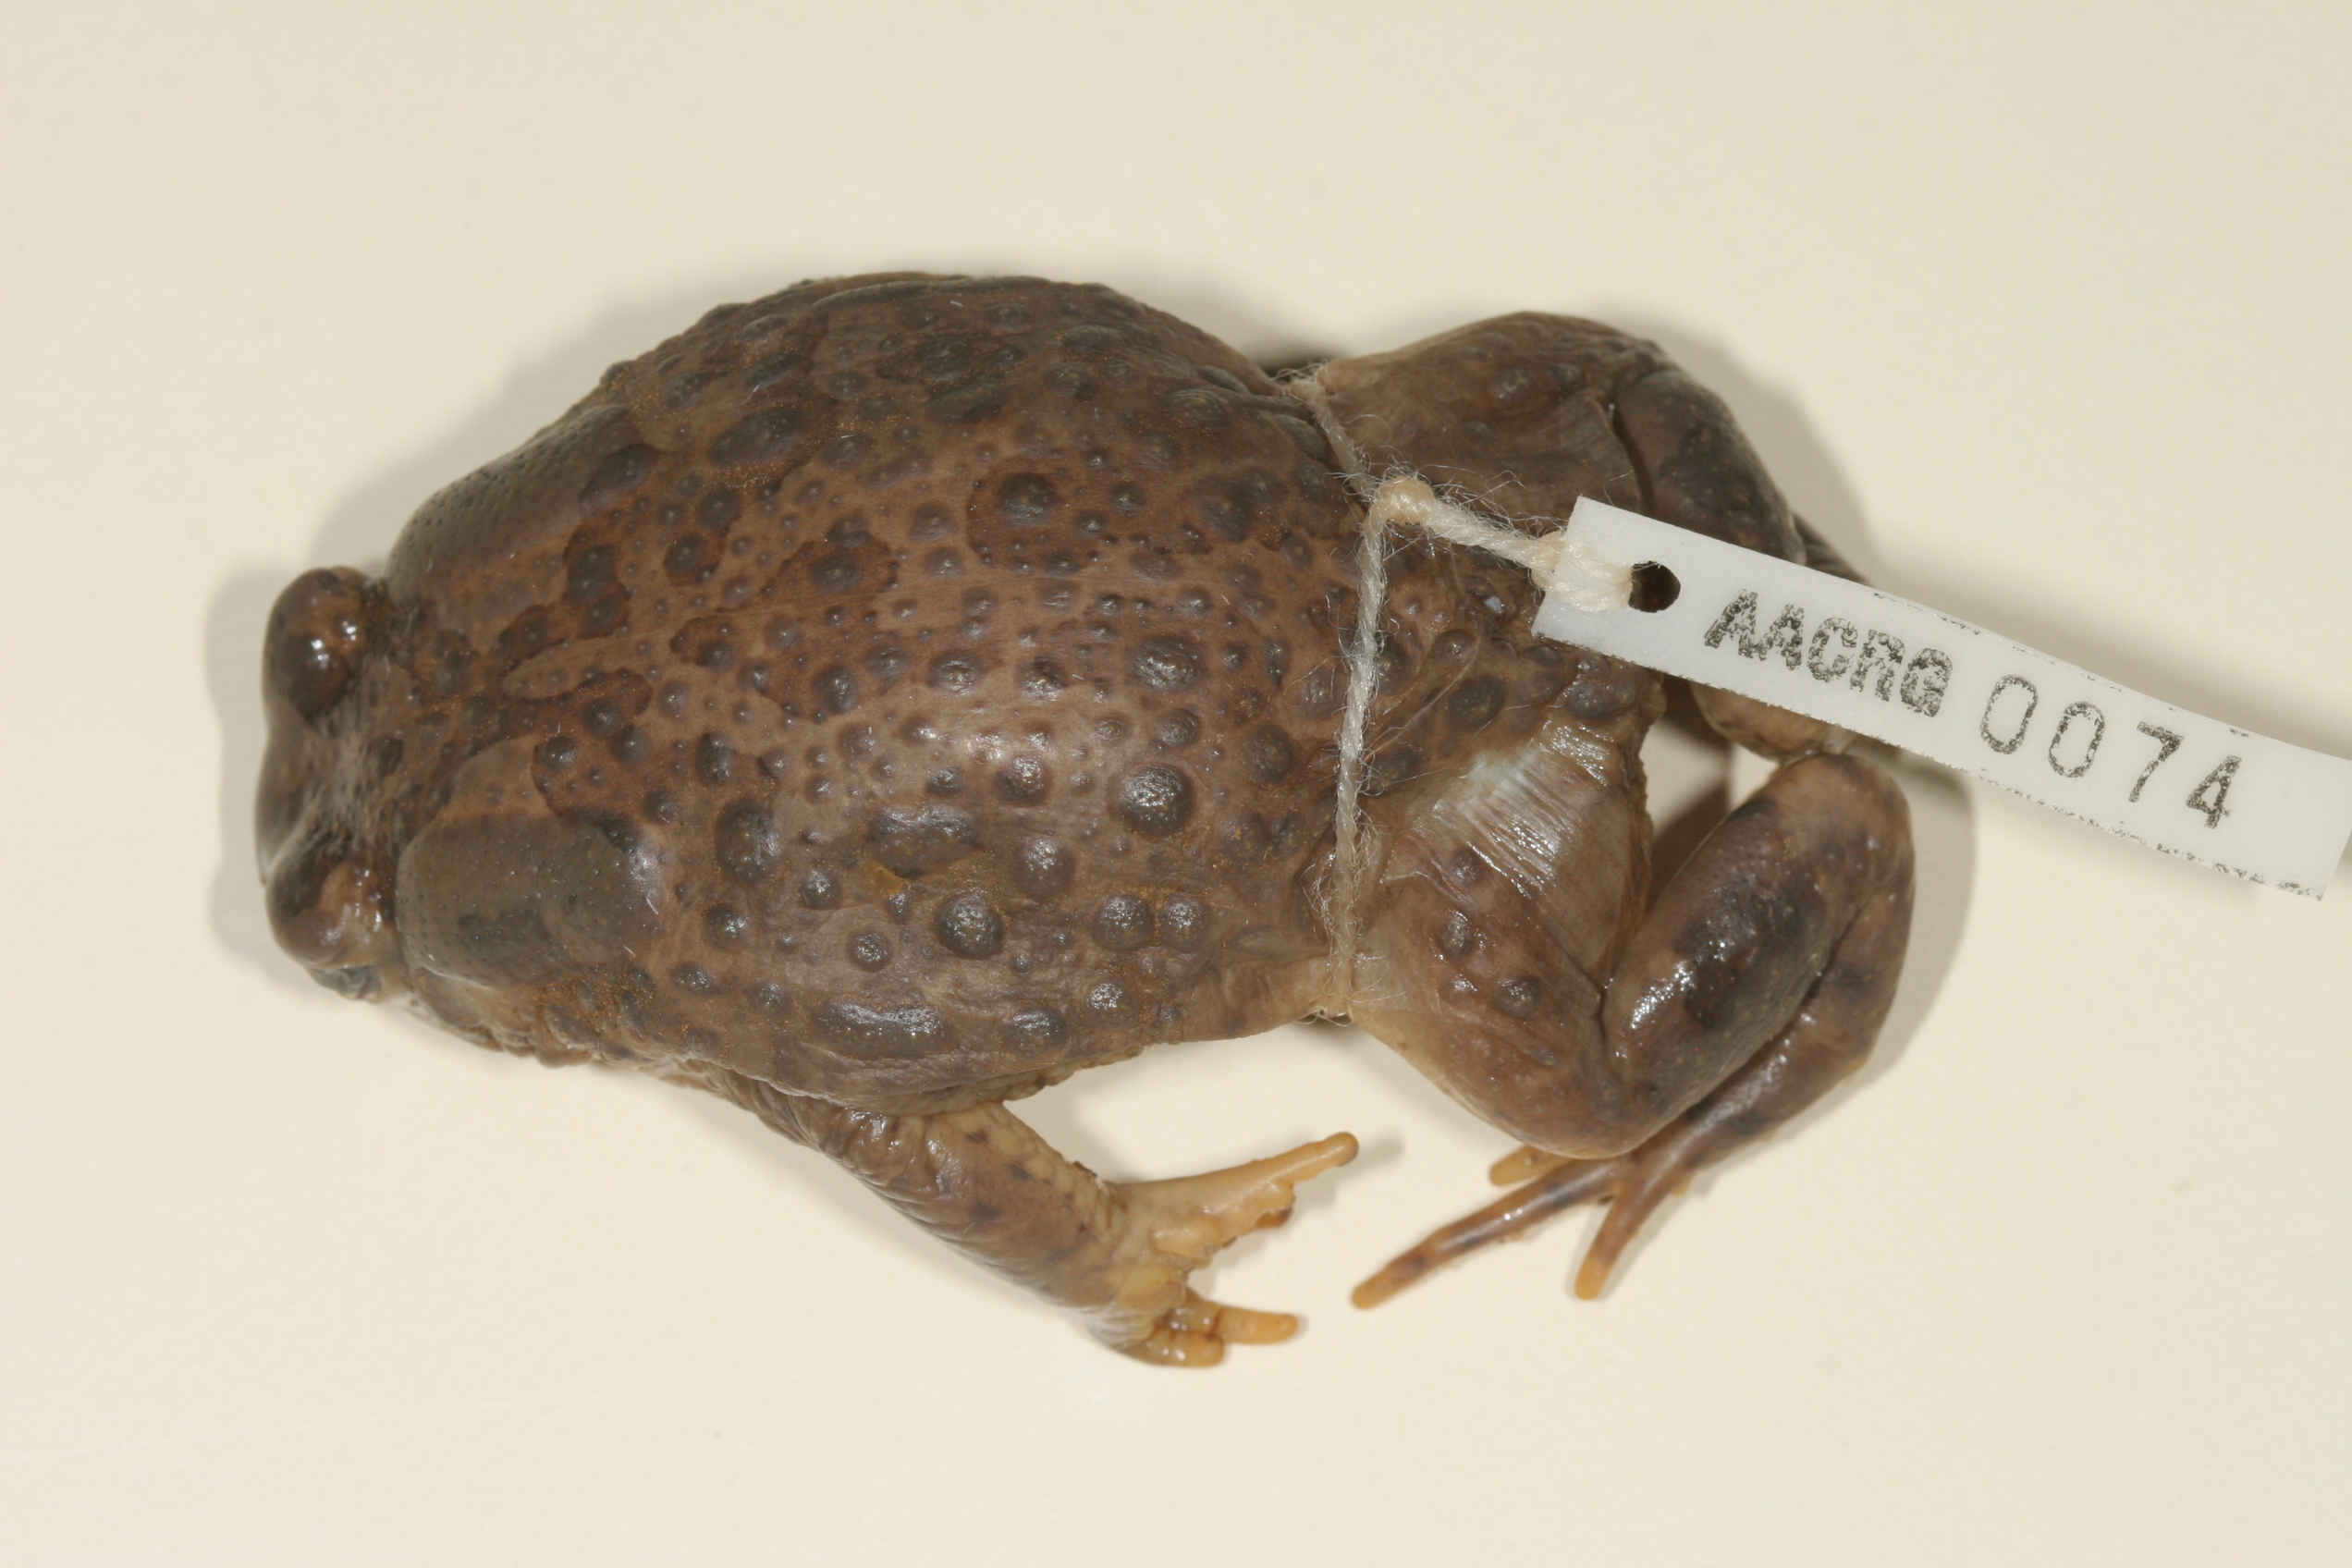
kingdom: Animalia
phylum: Chordata
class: Amphibia
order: Anura
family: Bufonidae
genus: Vandijkophrynus
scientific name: Vandijkophrynus gariepensis
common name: Gariep toad
